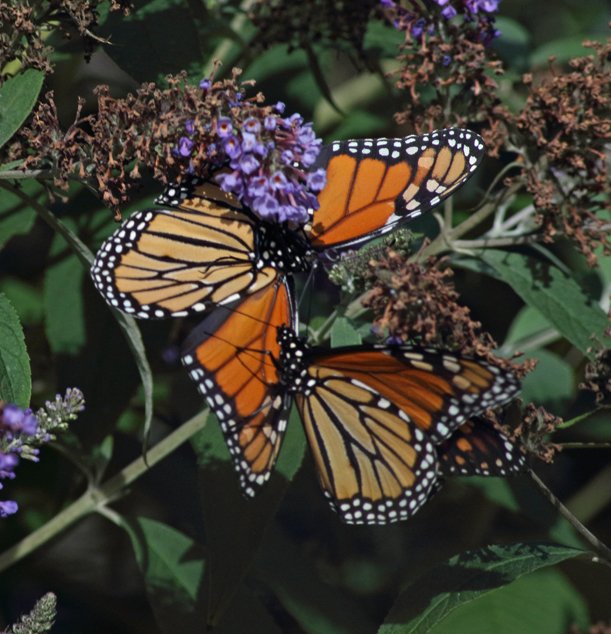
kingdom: Animalia
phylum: Arthropoda
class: Insecta
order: Lepidoptera
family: Nymphalidae
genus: Danaus
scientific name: Danaus plexippus
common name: Monarch
